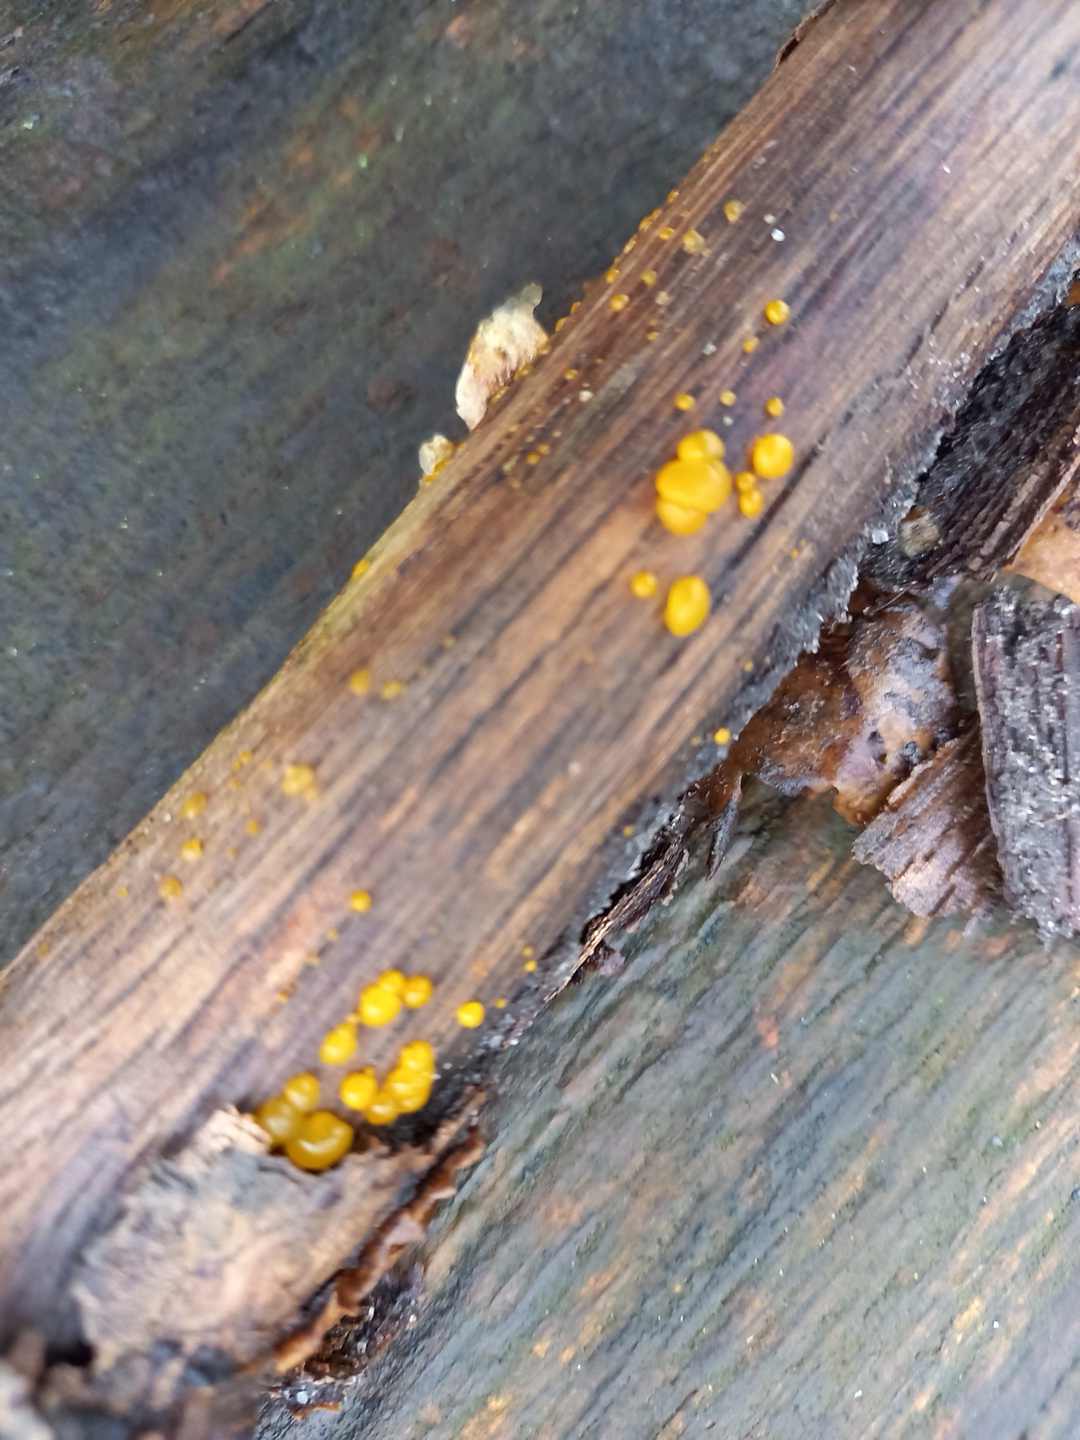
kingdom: Fungi
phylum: Basidiomycota
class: Dacrymycetes
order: Dacrymycetales
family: Dacrymycetaceae
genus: Dacrymyces
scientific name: Dacrymyces stillatus
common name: almindelig tåresvamp
